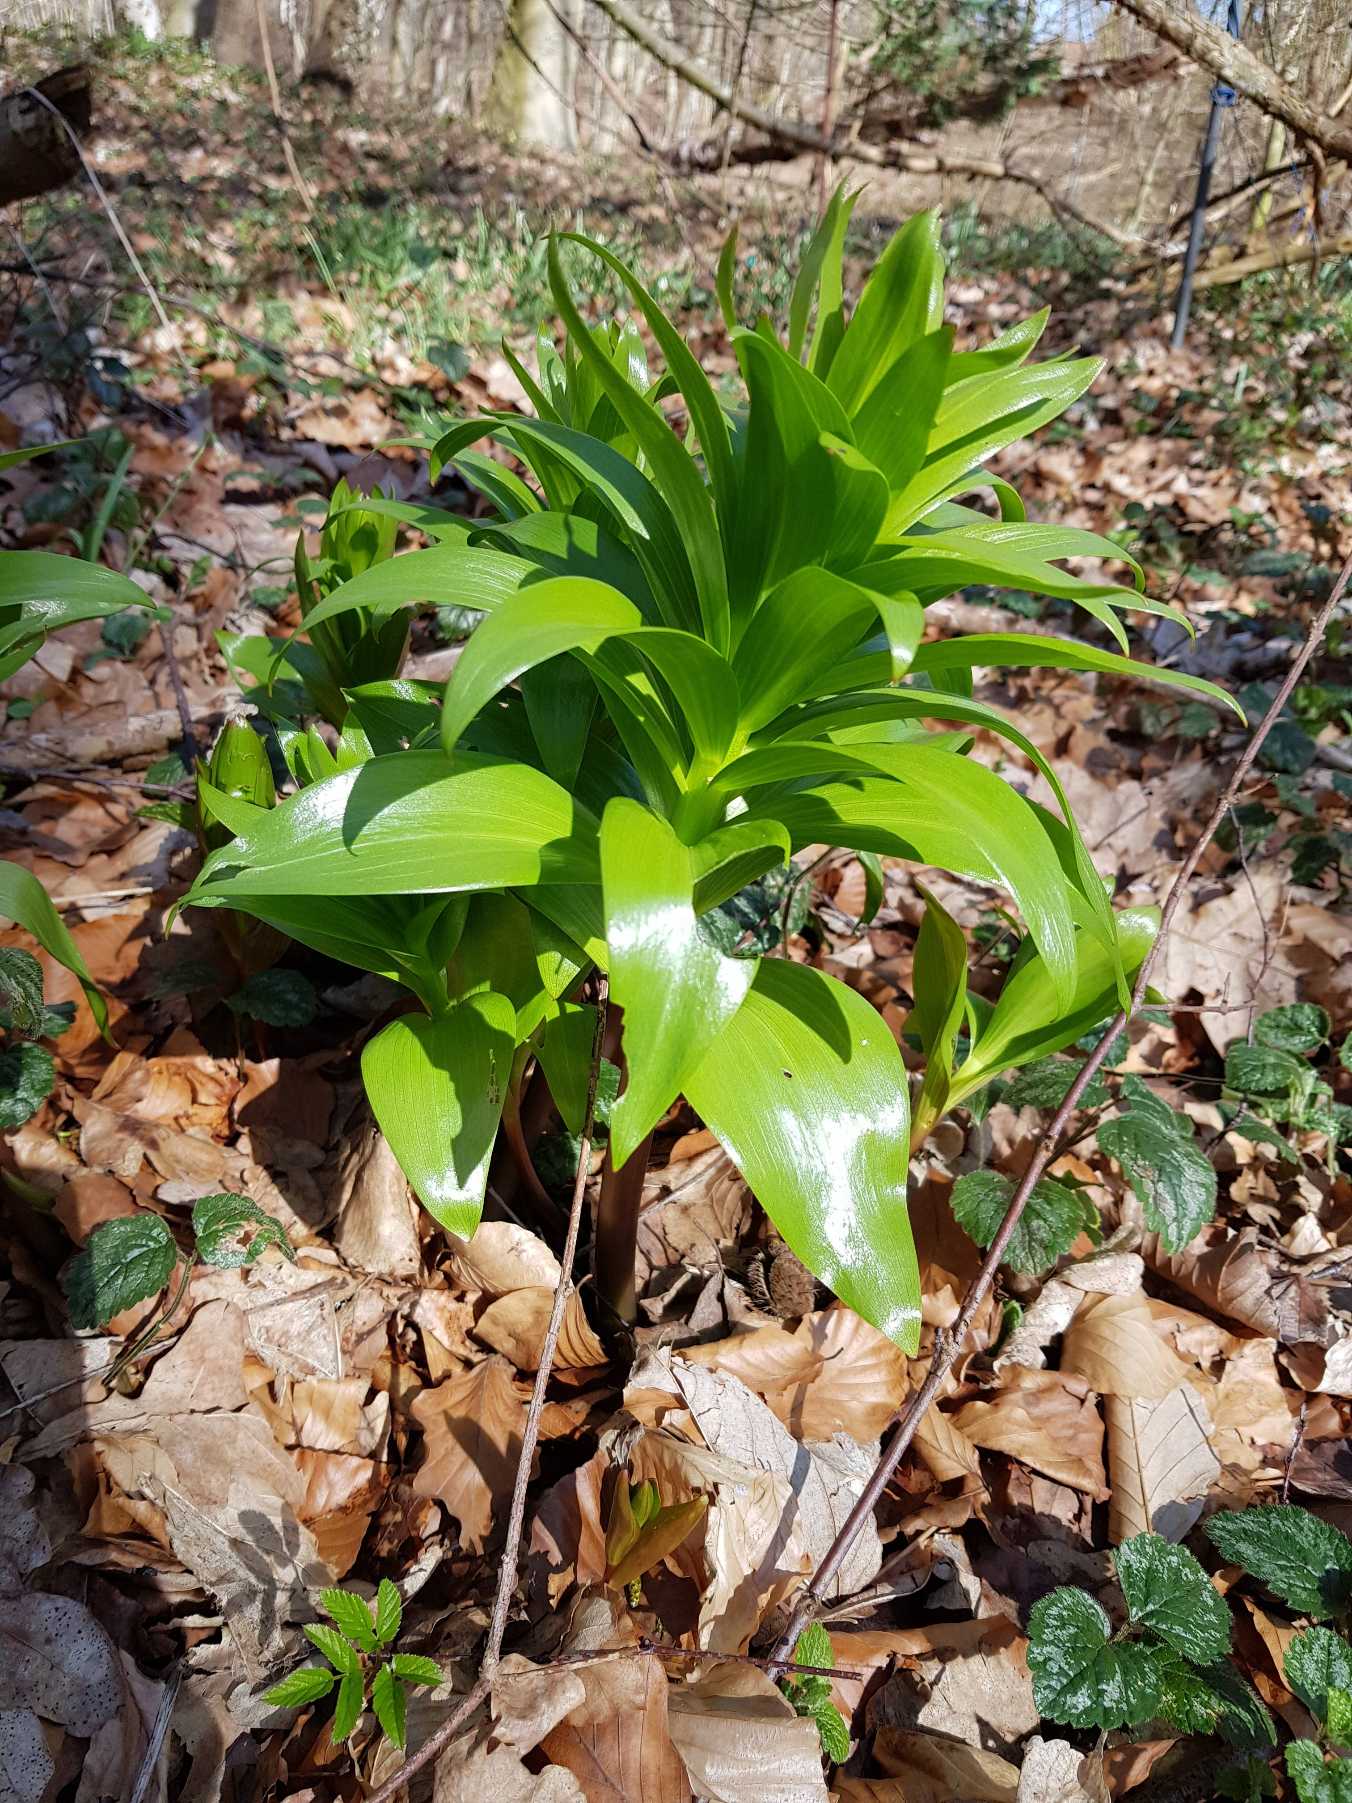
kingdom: Plantae
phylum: Tracheophyta
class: Liliopsida
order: Liliales
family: Liliaceae
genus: Fritillaria
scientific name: Fritillaria imperialis
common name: Kejserkrone
